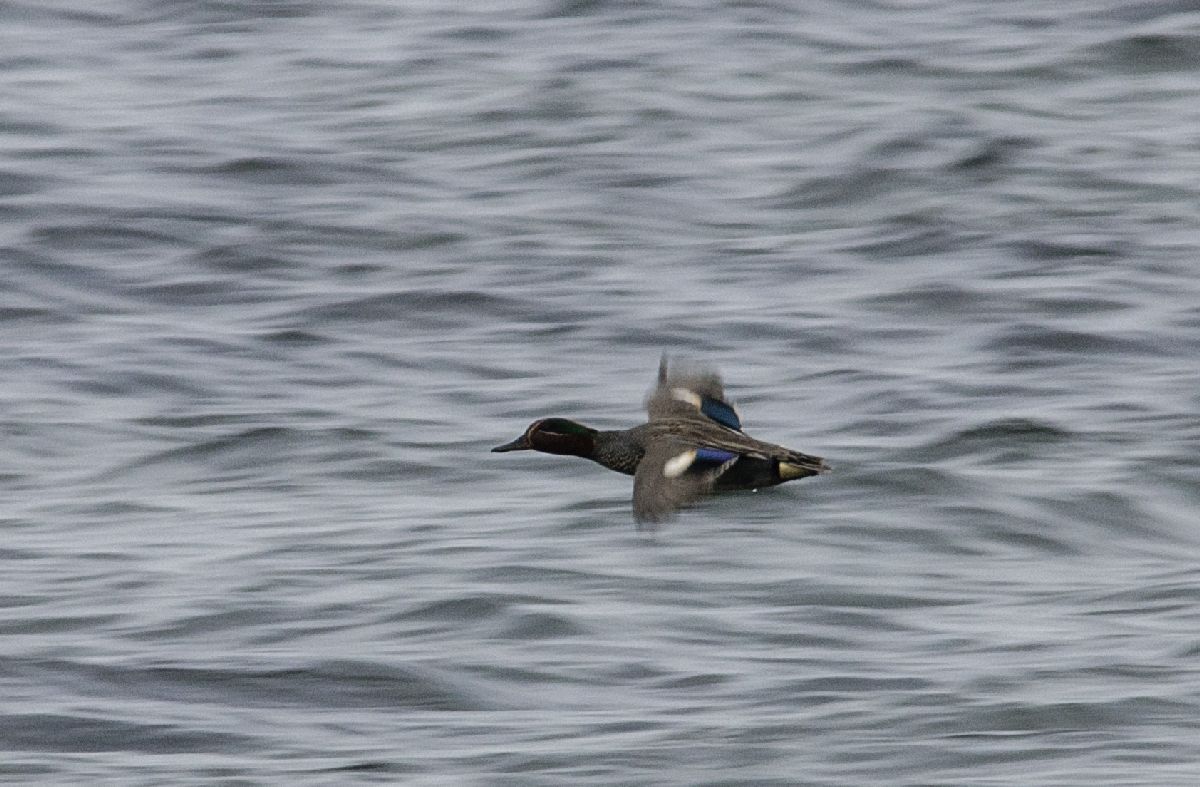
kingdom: Animalia
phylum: Chordata
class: Aves
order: Anseriformes
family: Anatidae
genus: Anas
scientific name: Anas crecca
